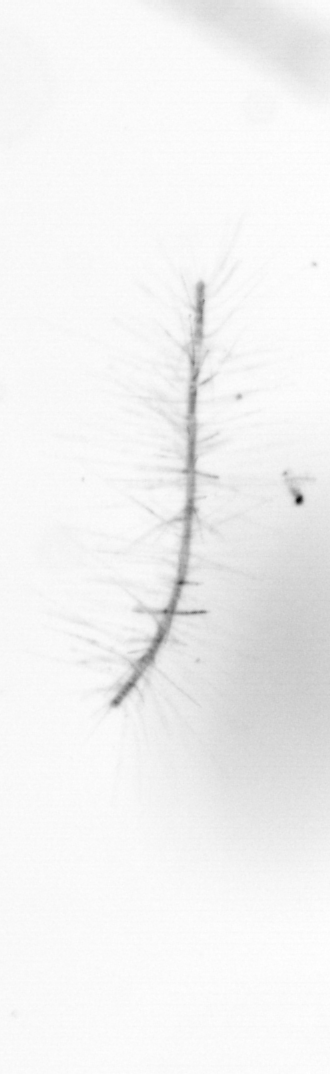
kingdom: Chromista
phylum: Ochrophyta
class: Bacillariophyceae
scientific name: Bacillariophyceae
